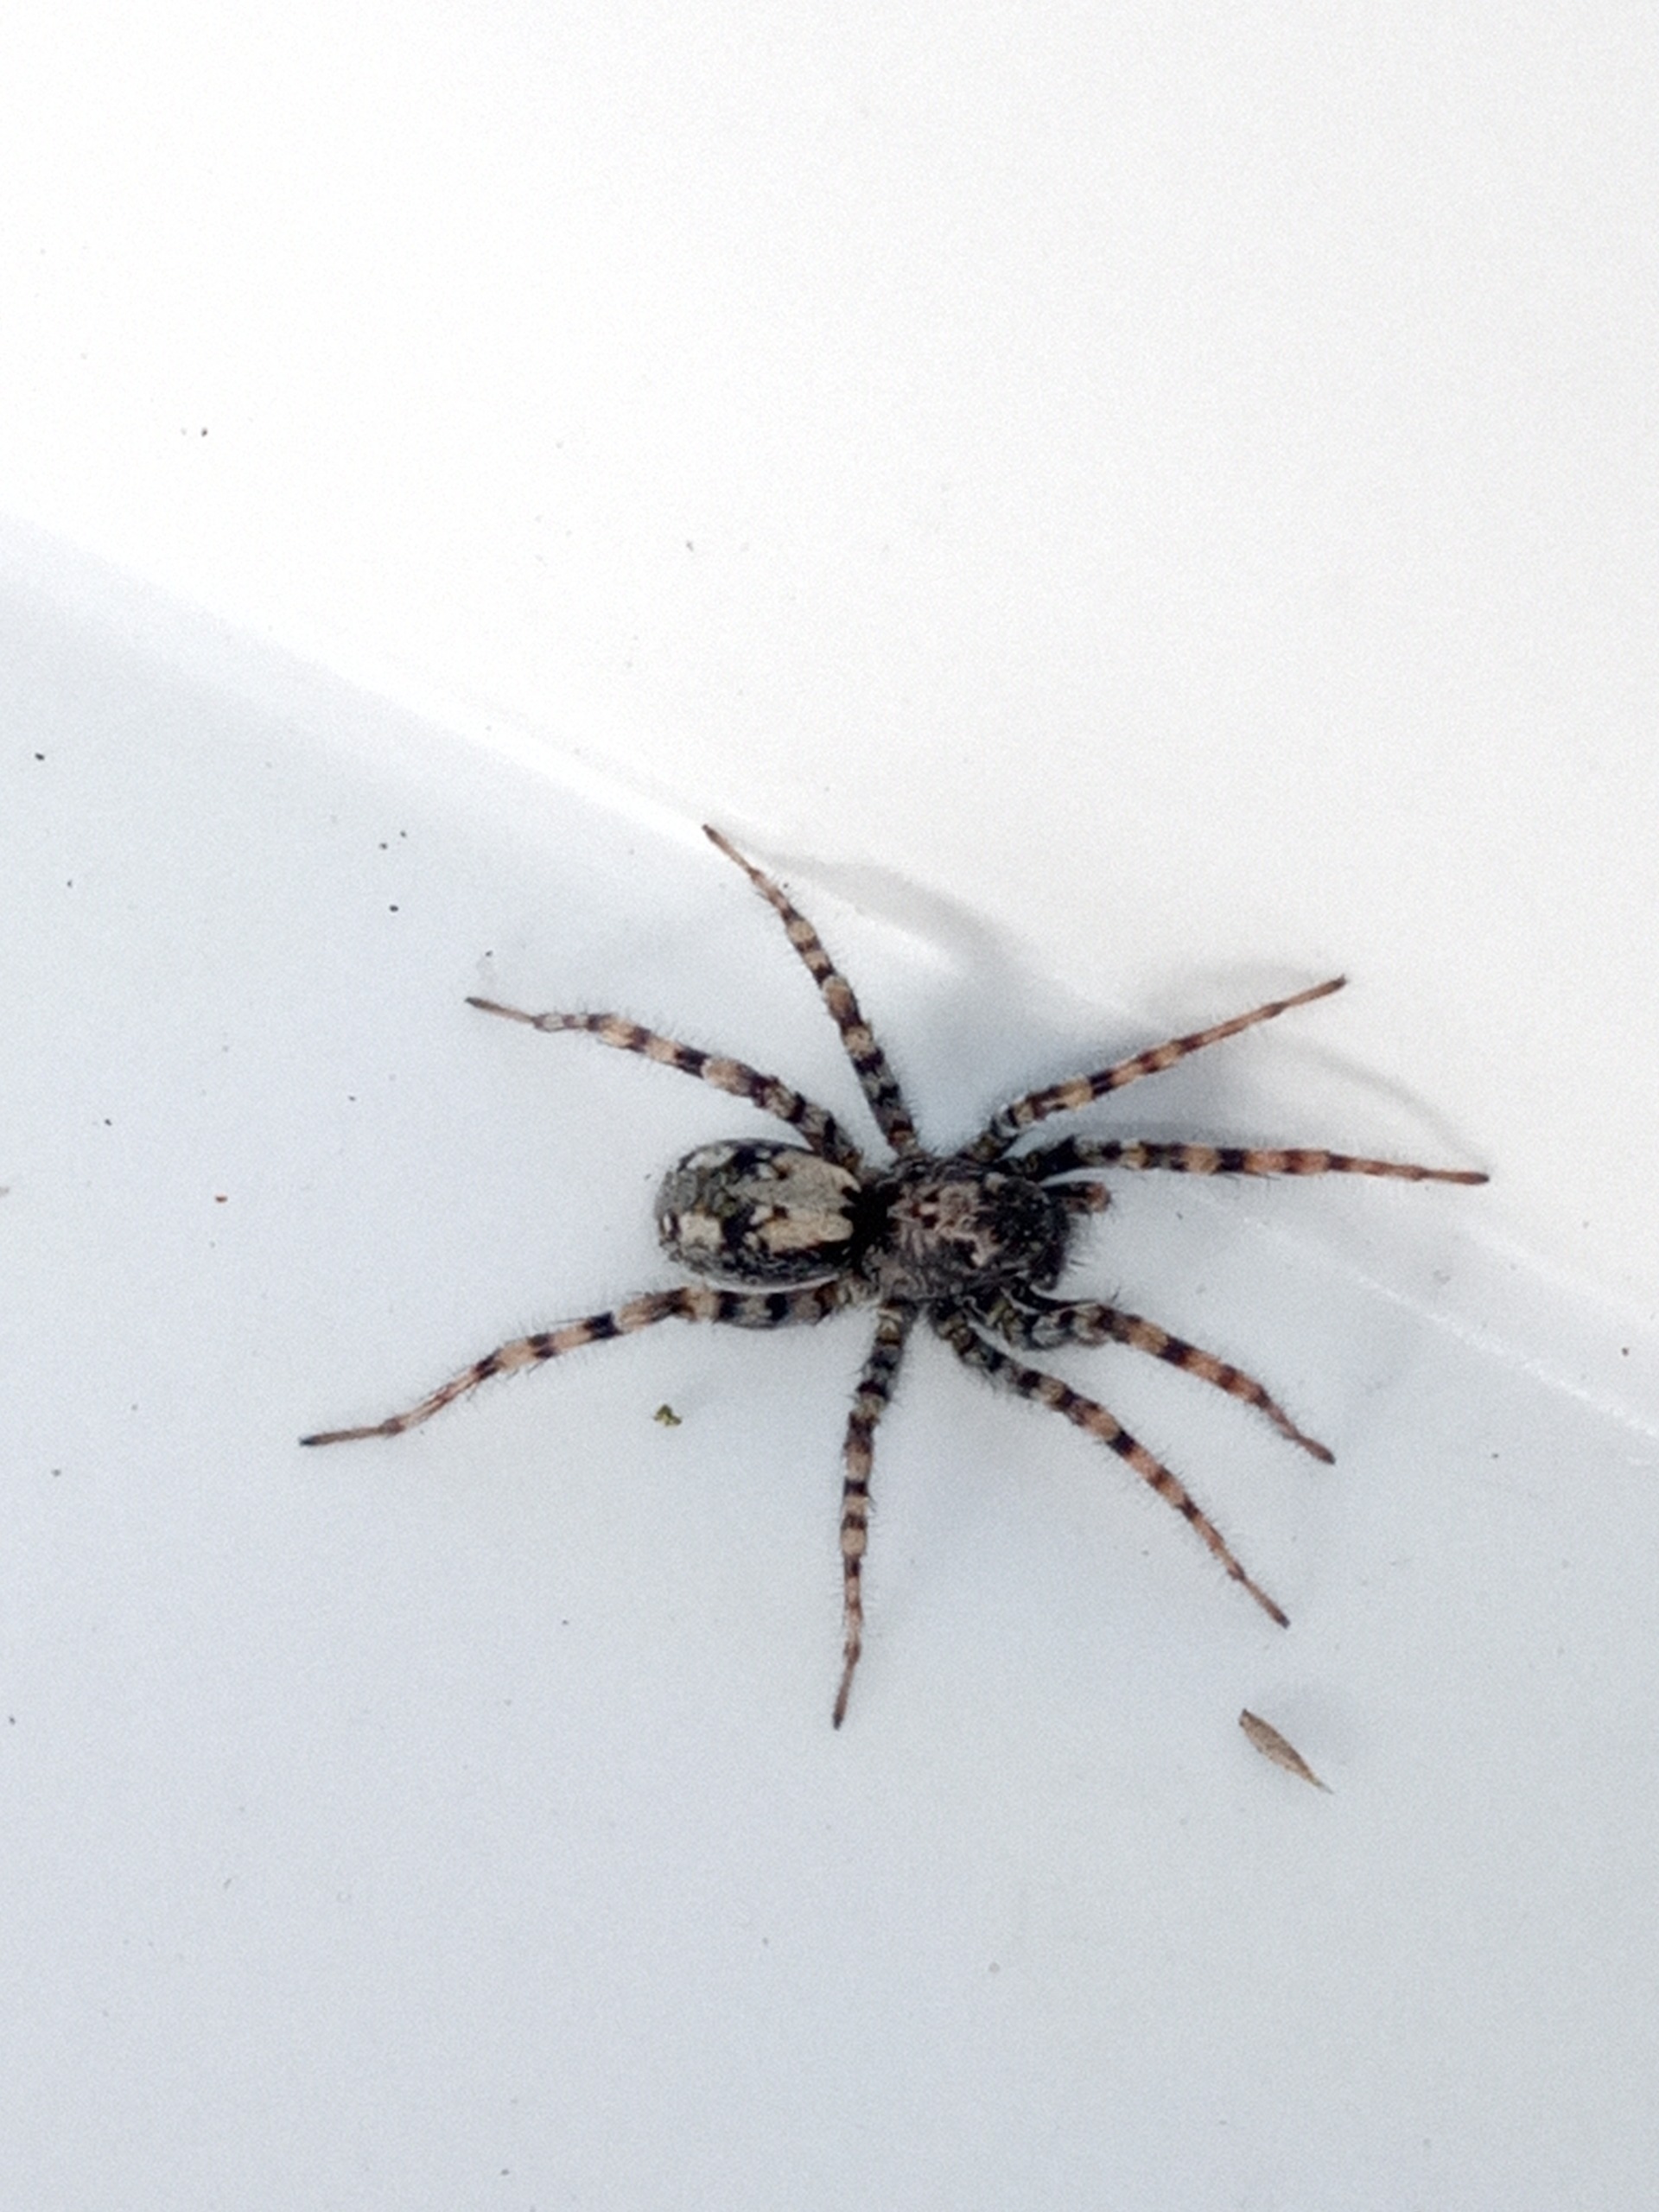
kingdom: Animalia
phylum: Arthropoda
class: Arachnida
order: Araneae
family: Lycosidae
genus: Arctosa
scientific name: Arctosa perita
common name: Klitgraveedderkop
